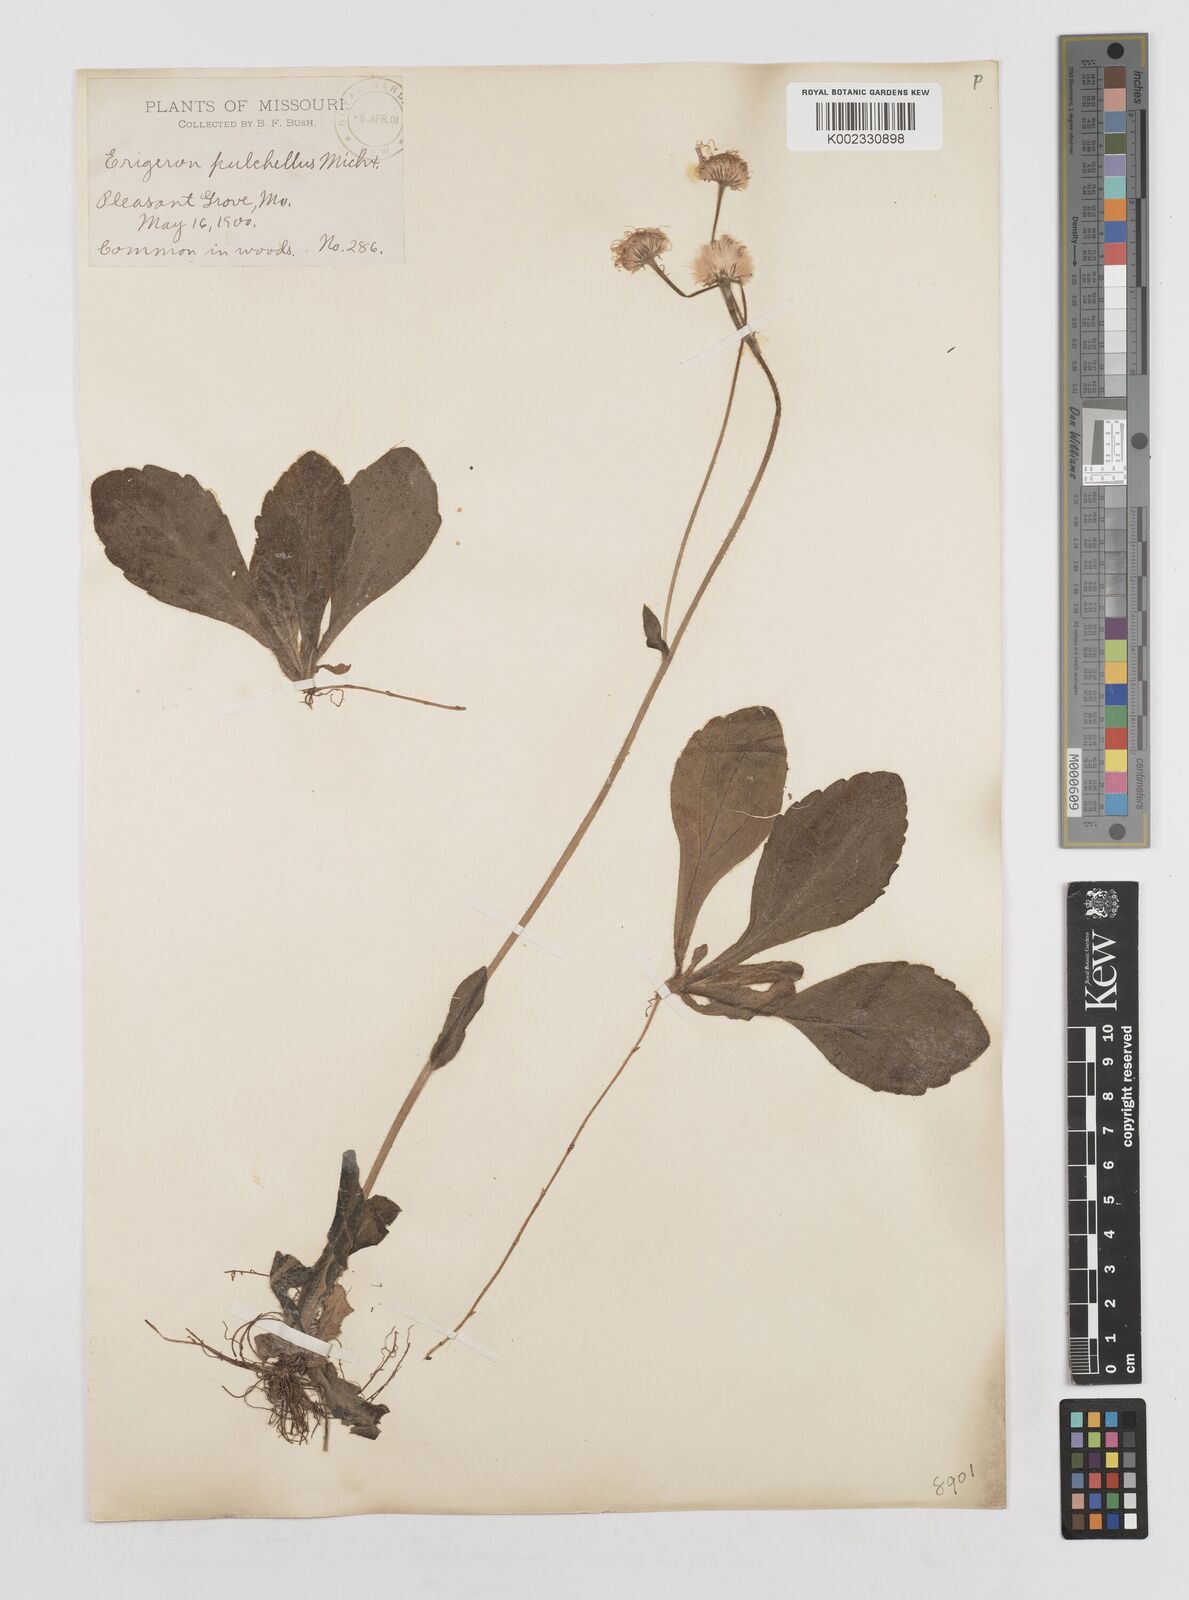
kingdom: Plantae
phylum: Tracheophyta
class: Magnoliopsida
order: Asterales
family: Asteraceae
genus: Erigeron
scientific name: Erigeron pulchellus
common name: Hairy fleabane
